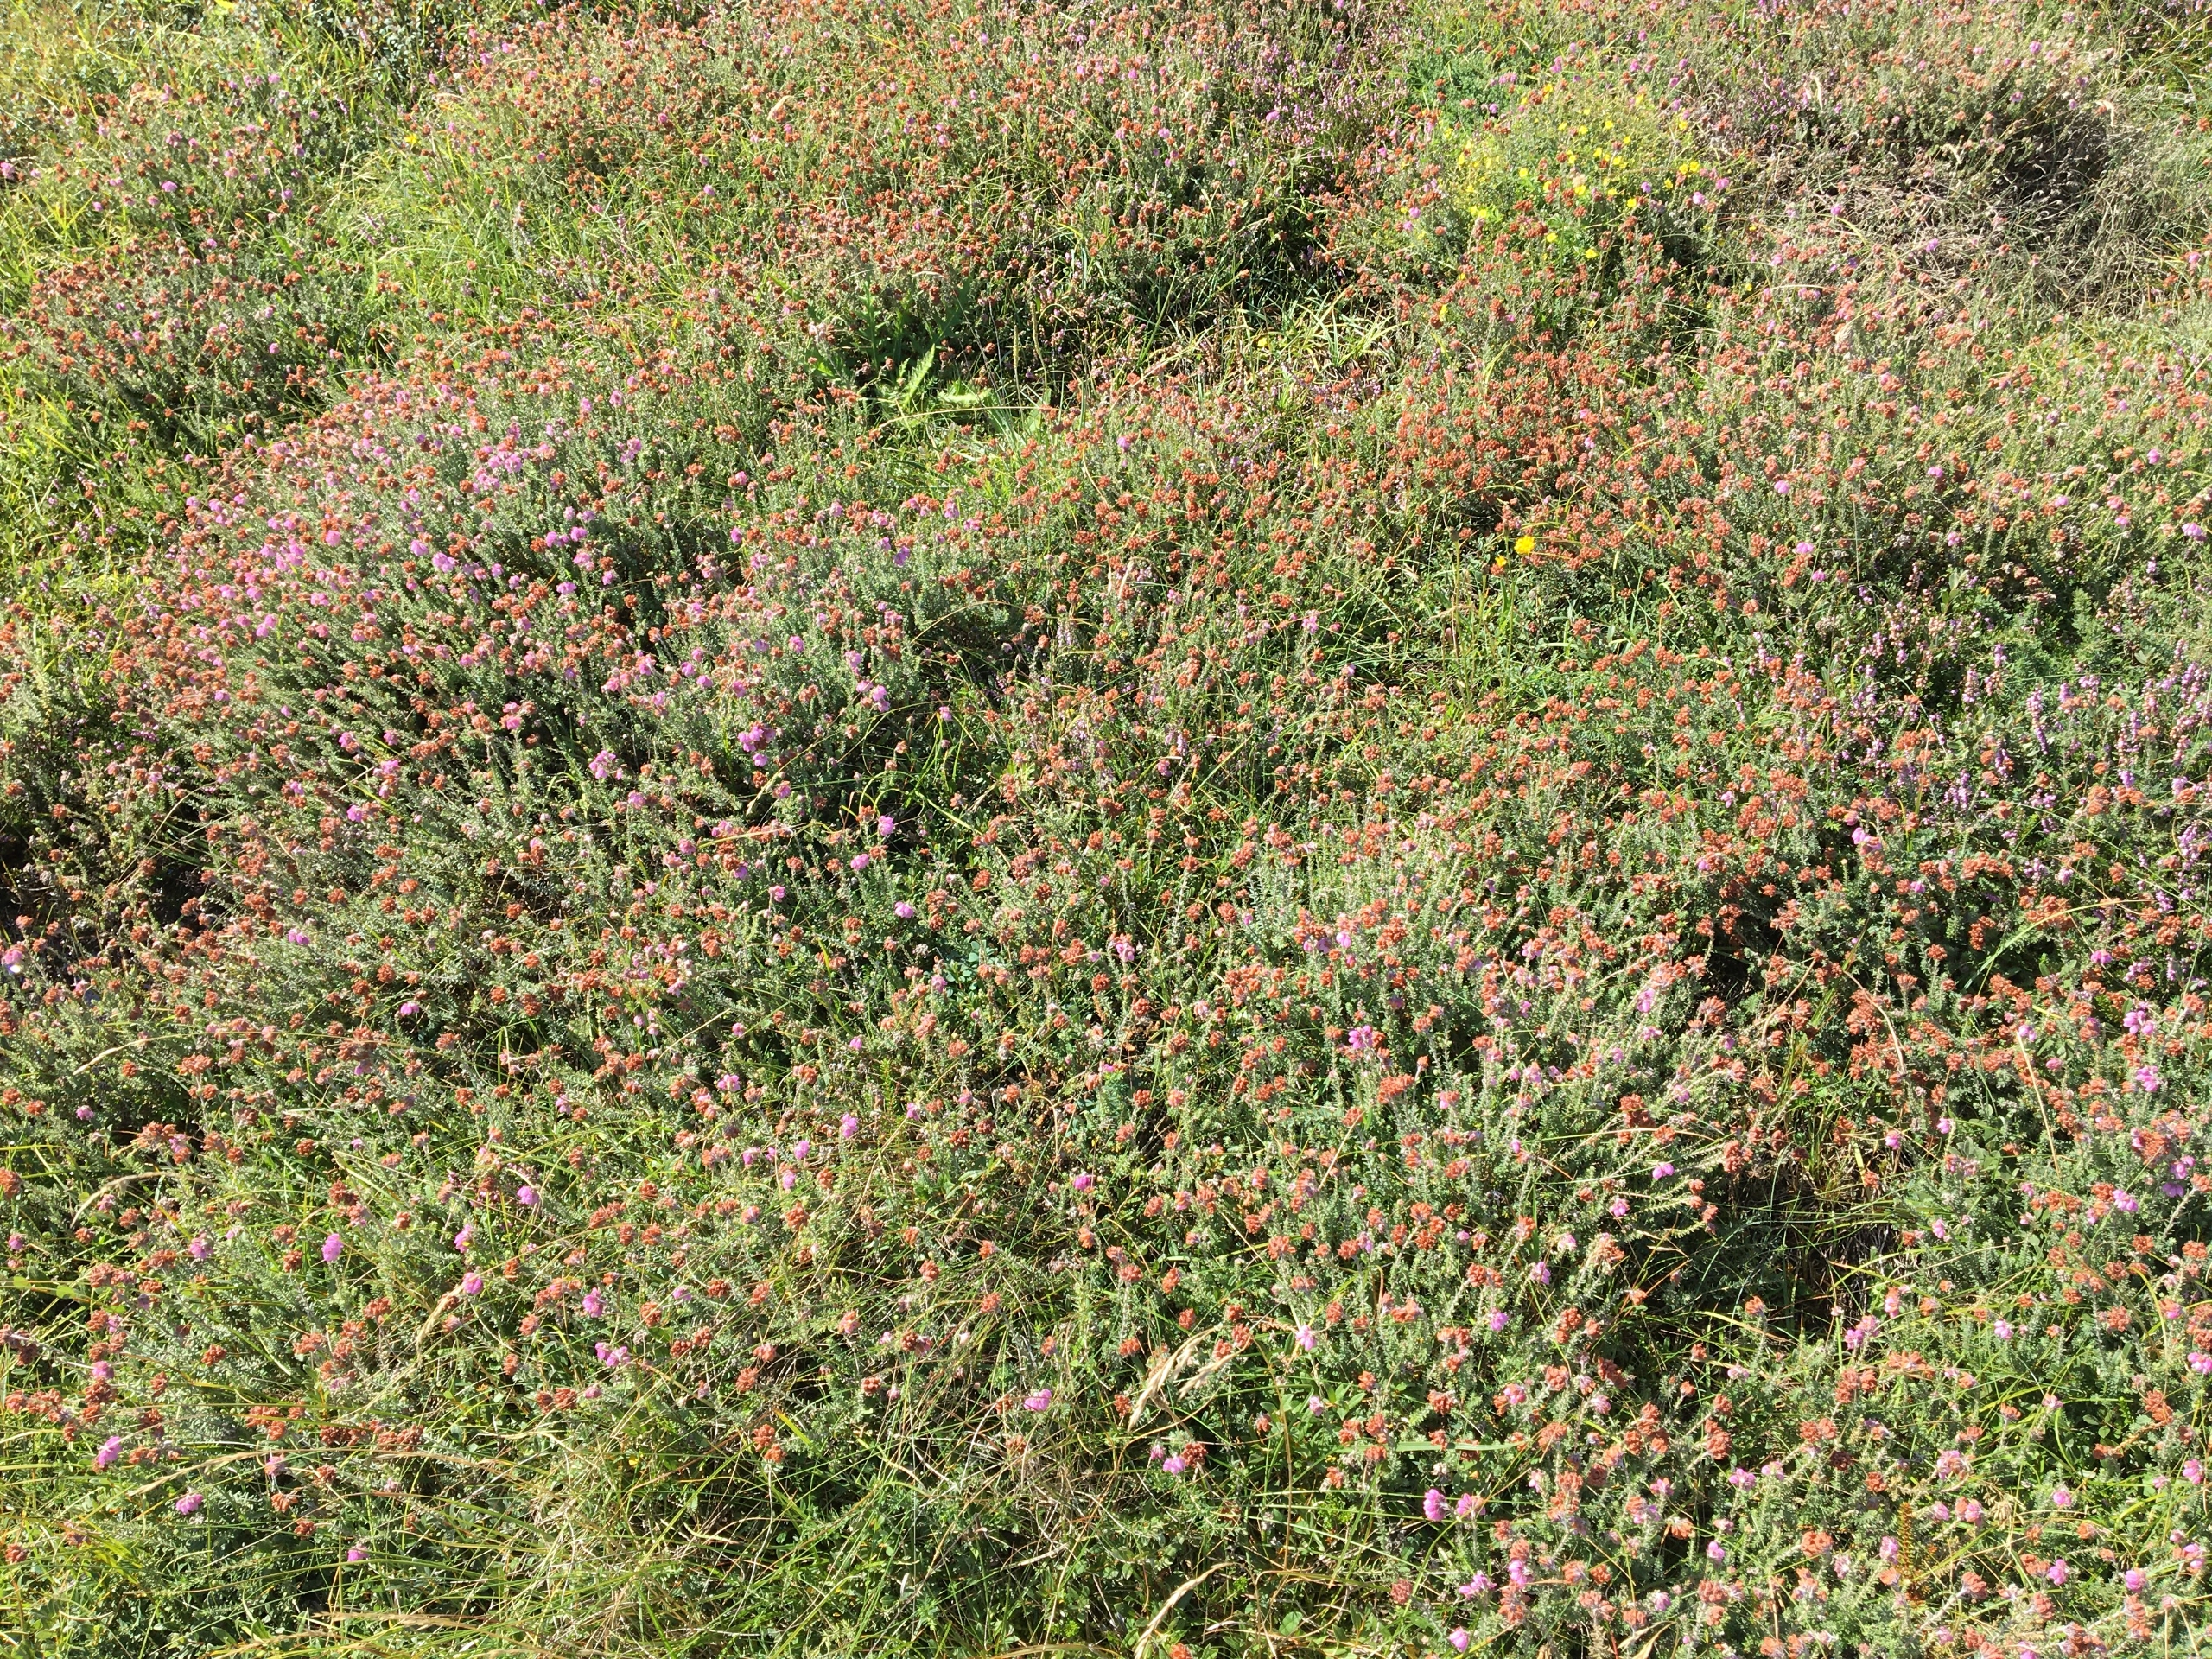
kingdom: Plantae
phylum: Tracheophyta
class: Magnoliopsida
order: Ericales
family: Ericaceae
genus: Erica
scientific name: Erica tetralix
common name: Klokkelyng
